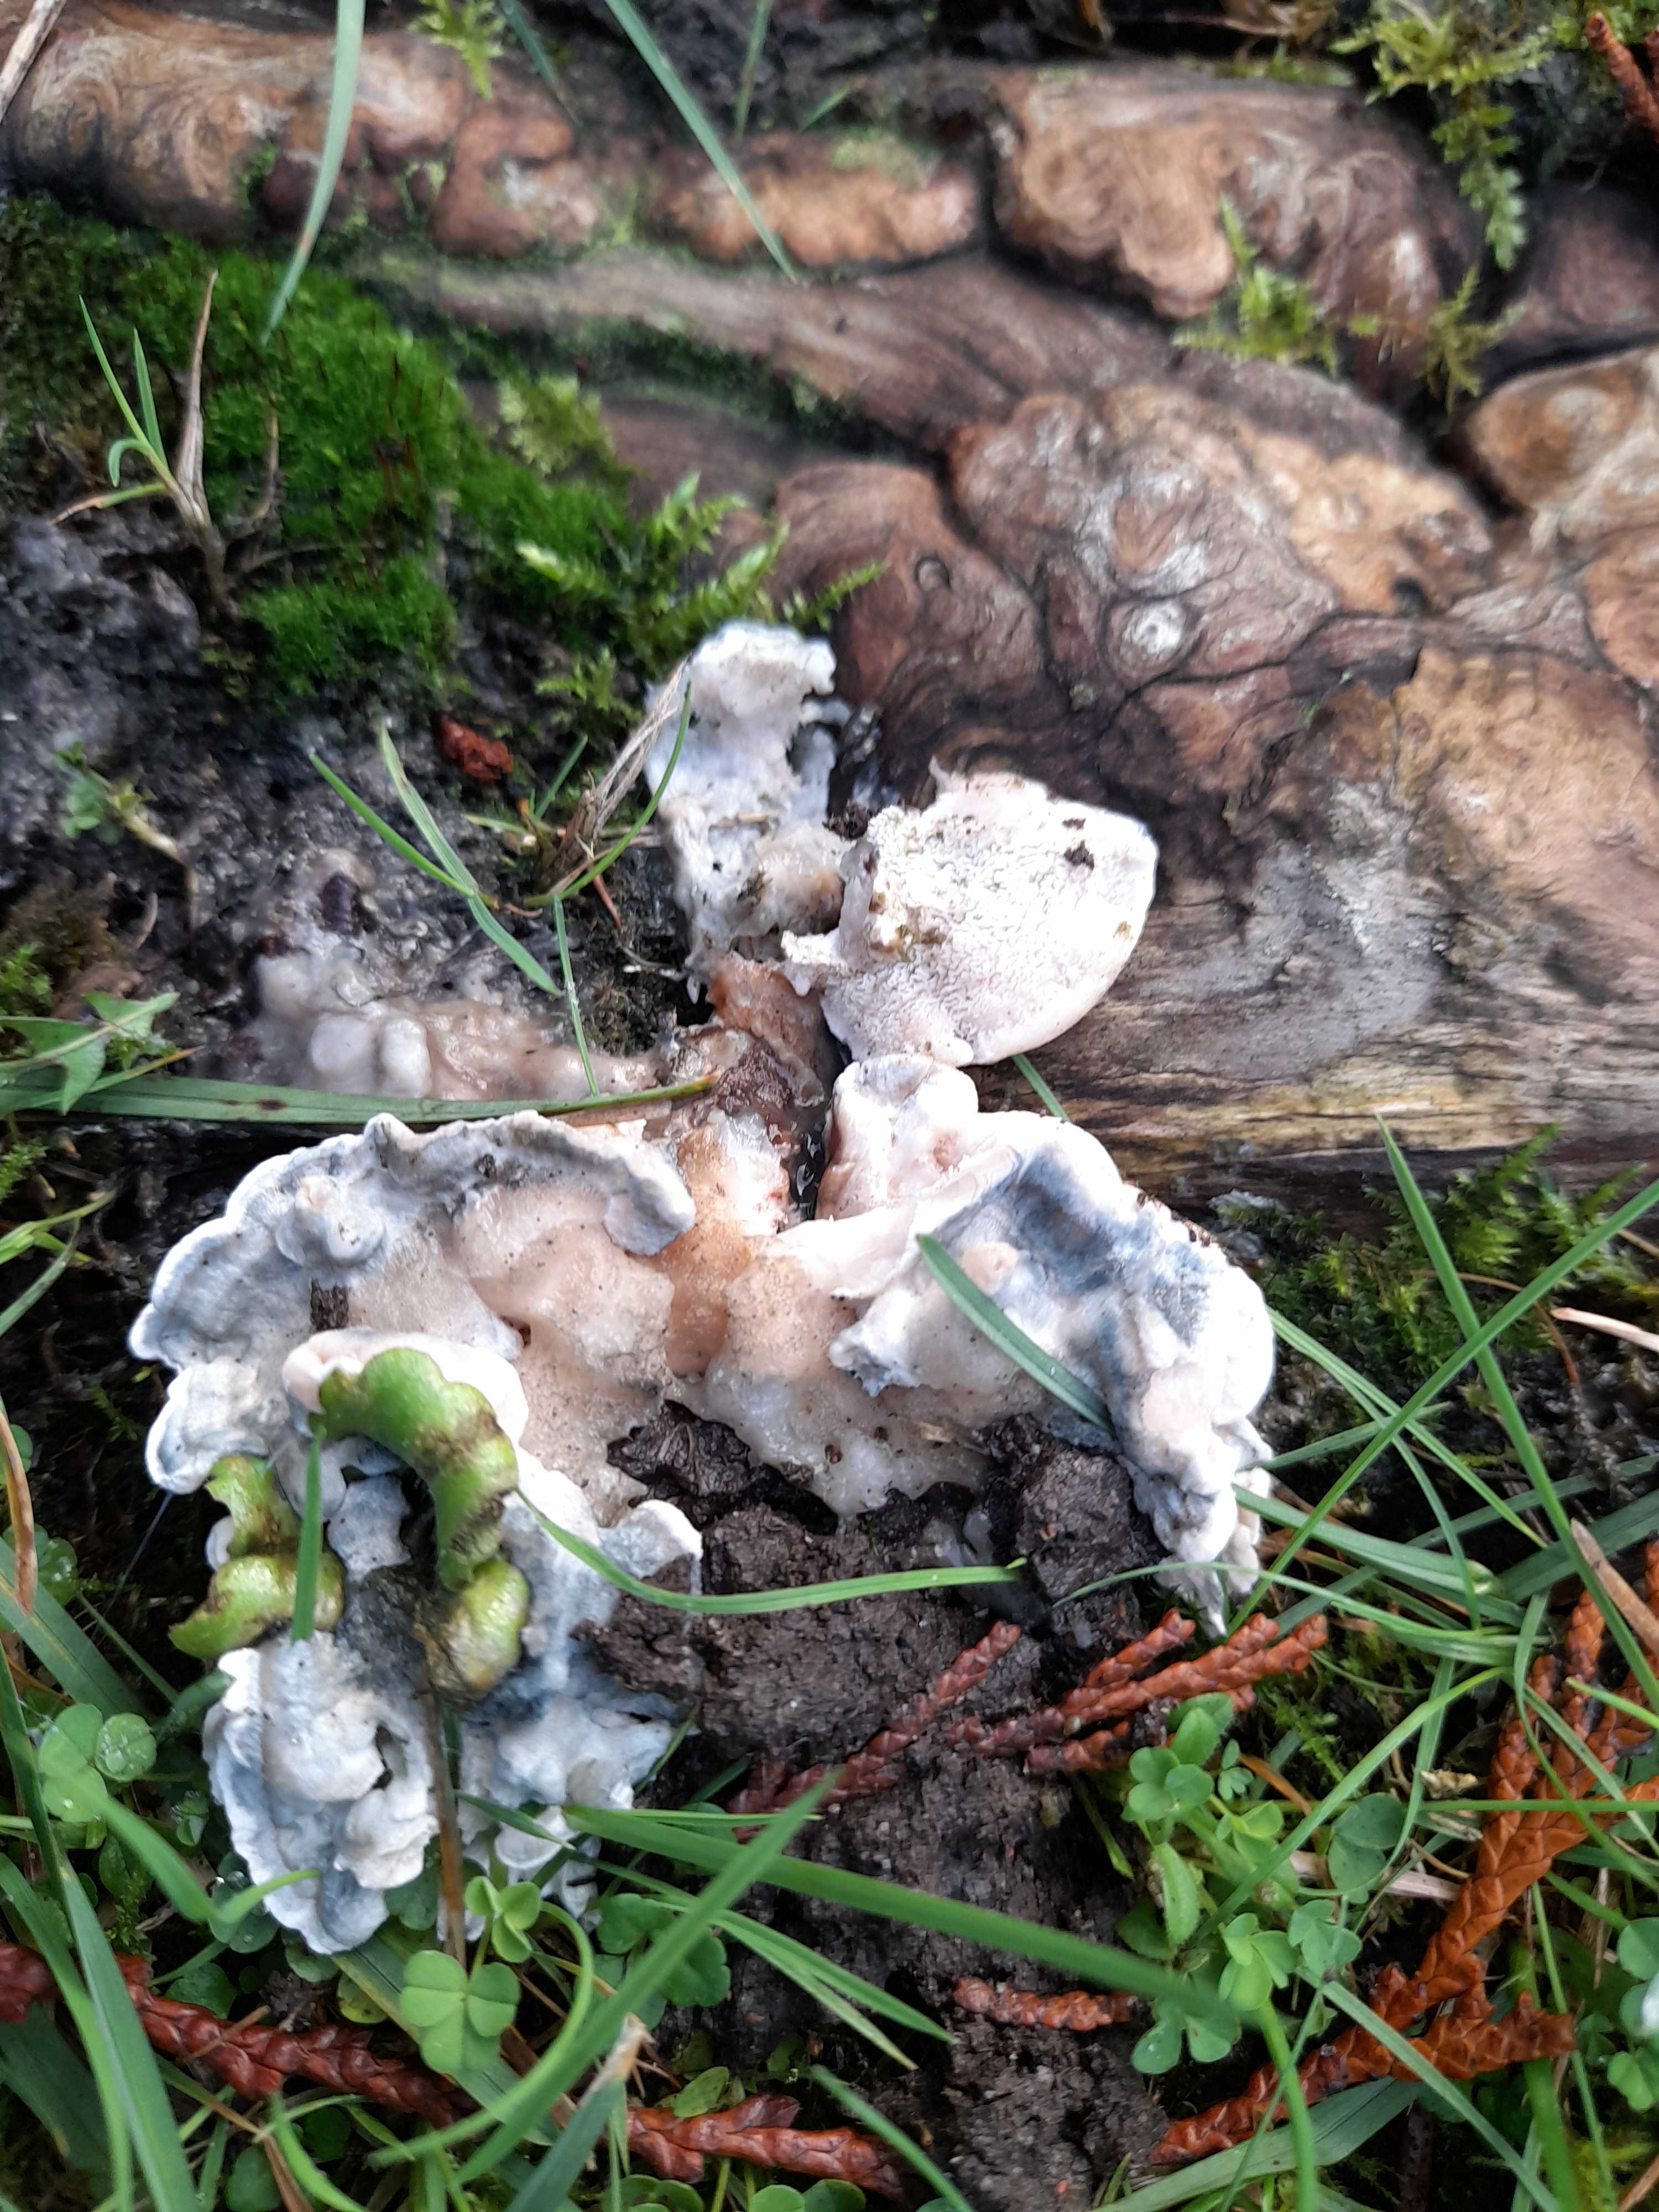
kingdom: Fungi
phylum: Basidiomycota
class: Agaricomycetes
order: Polyporales
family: Polyporaceae
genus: Cyanosporus
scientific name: Cyanosporus caesius
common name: blålig kødporesvamp
